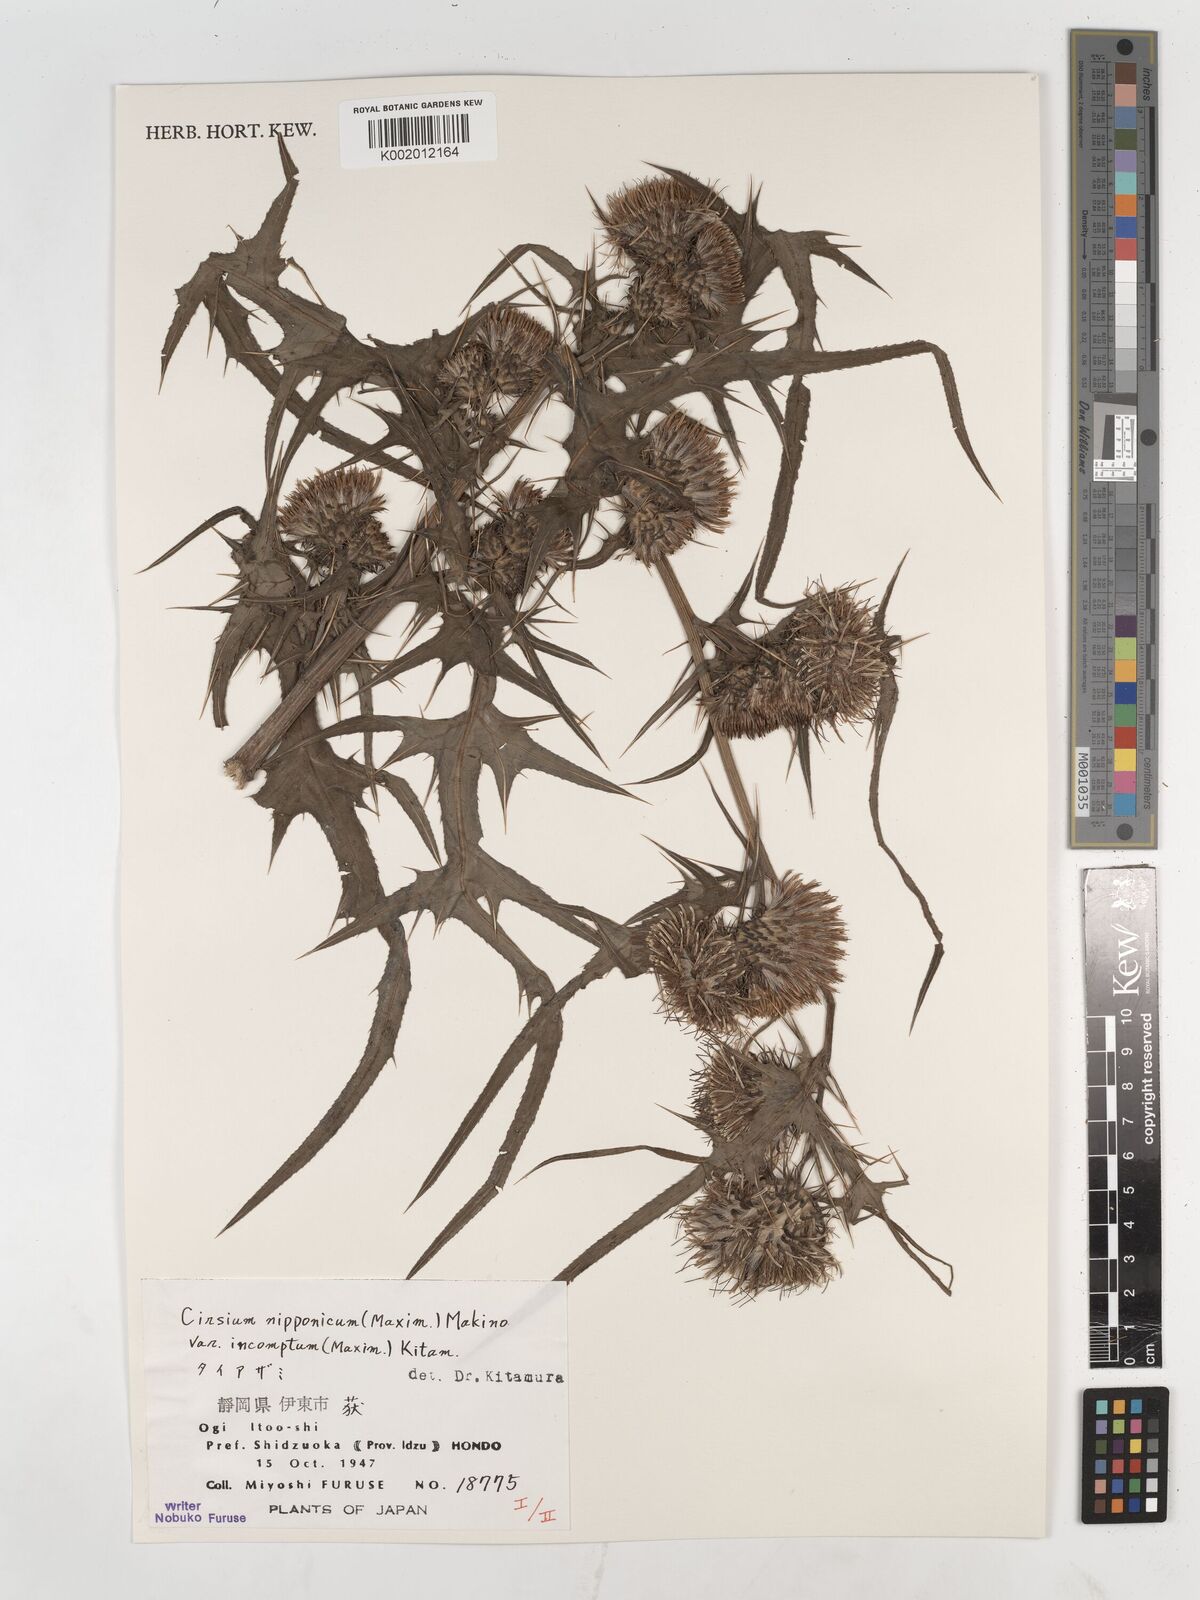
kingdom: Plantae
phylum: Tracheophyta
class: Magnoliopsida
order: Asterales
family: Asteraceae
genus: Cirsium
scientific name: Cirsium nipponicum
